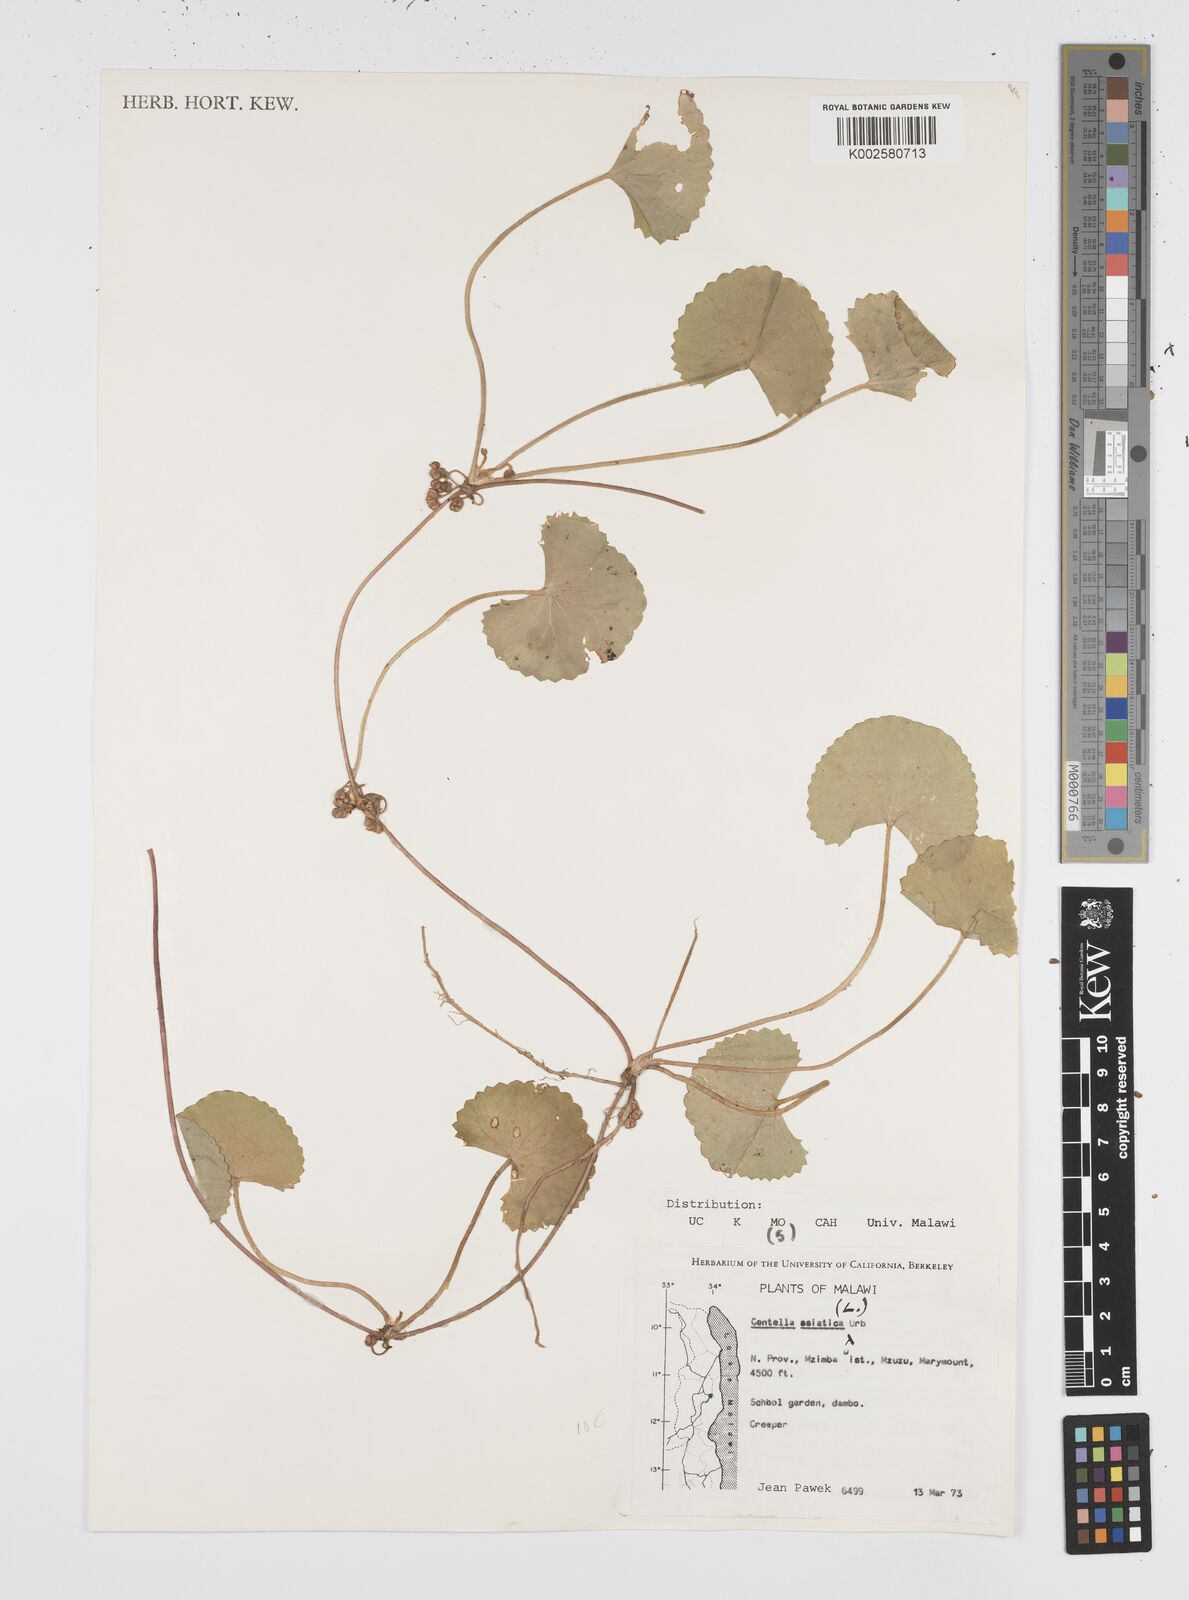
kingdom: Plantae
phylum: Tracheophyta
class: Magnoliopsida
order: Apiales
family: Apiaceae
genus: Centella
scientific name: Centella asiatica
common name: Spadeleaf
